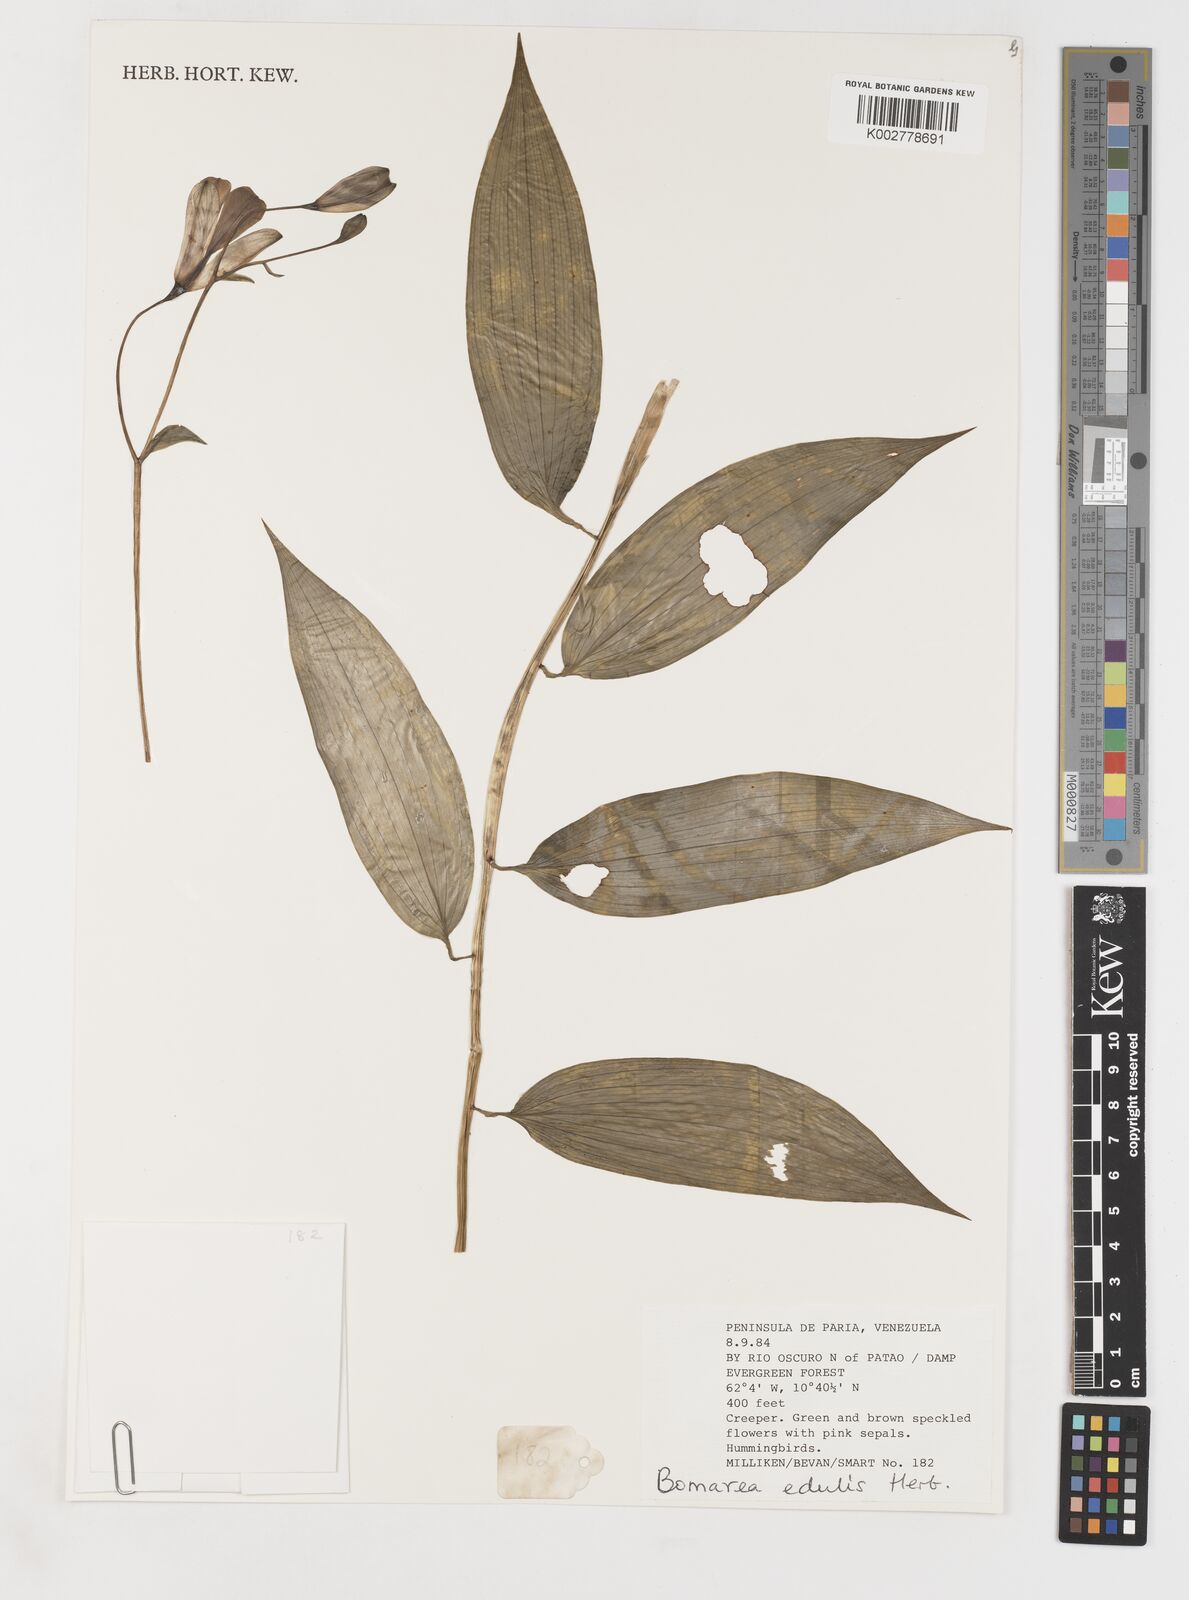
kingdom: Plantae
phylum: Tracheophyta
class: Liliopsida
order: Liliales
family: Alstroemeriaceae
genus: Bomarea
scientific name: Bomarea edulis
